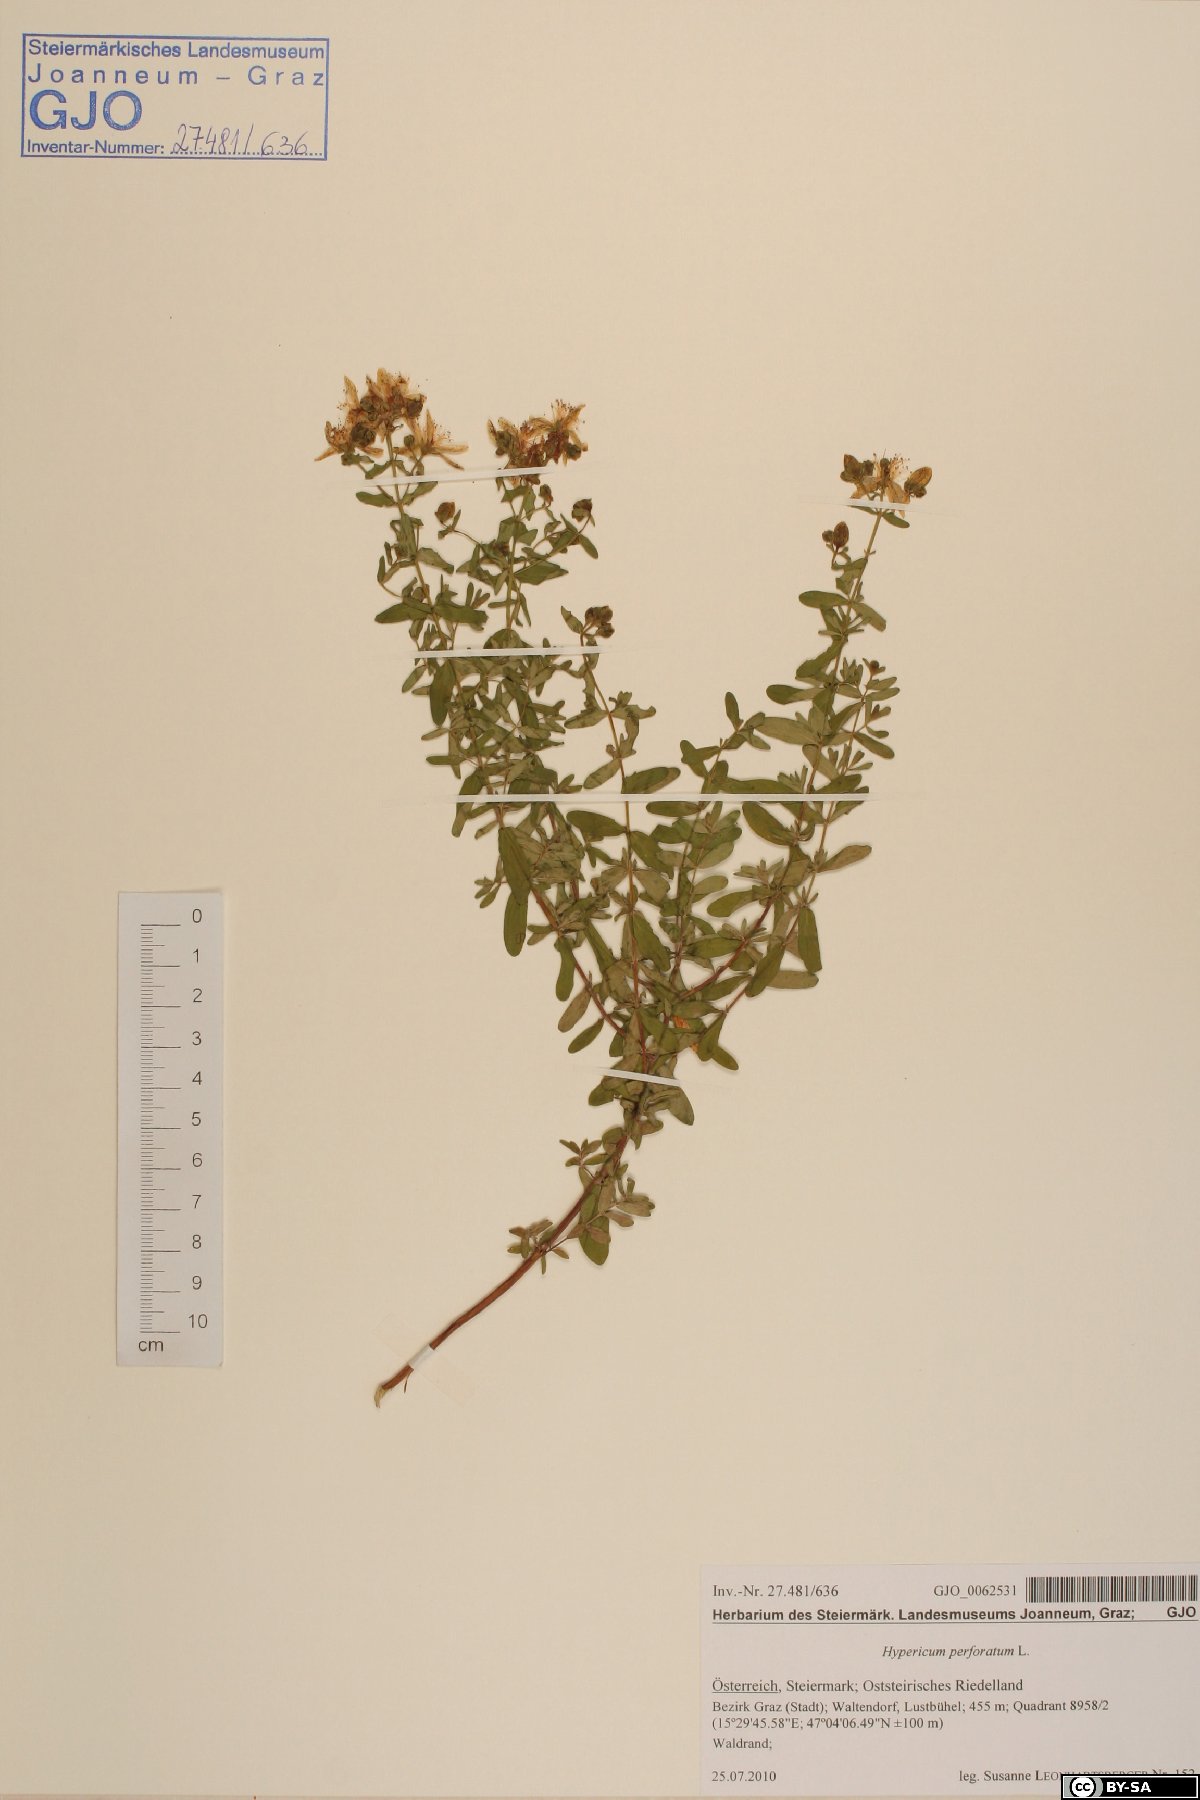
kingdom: Plantae
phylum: Tracheophyta
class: Magnoliopsida
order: Malpighiales
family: Hypericaceae
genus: Hypericum
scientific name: Hypericum perforatum
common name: Common st. johnswort
